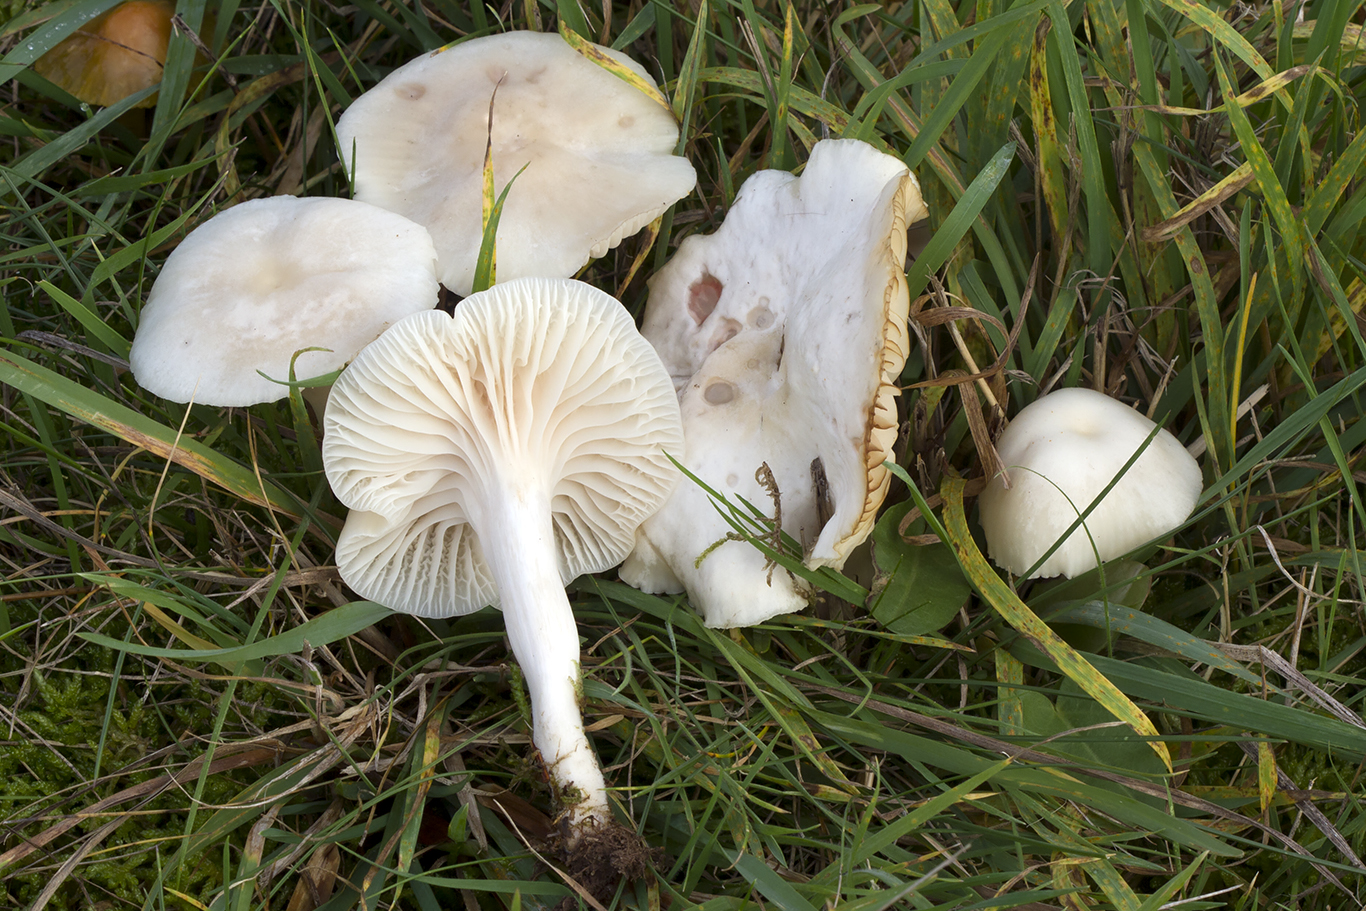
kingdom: Fungi
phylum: Basidiomycota
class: Agaricomycetes
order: Agaricales
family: Hygrophoraceae
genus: Cuphophyllus
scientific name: Cuphophyllus
